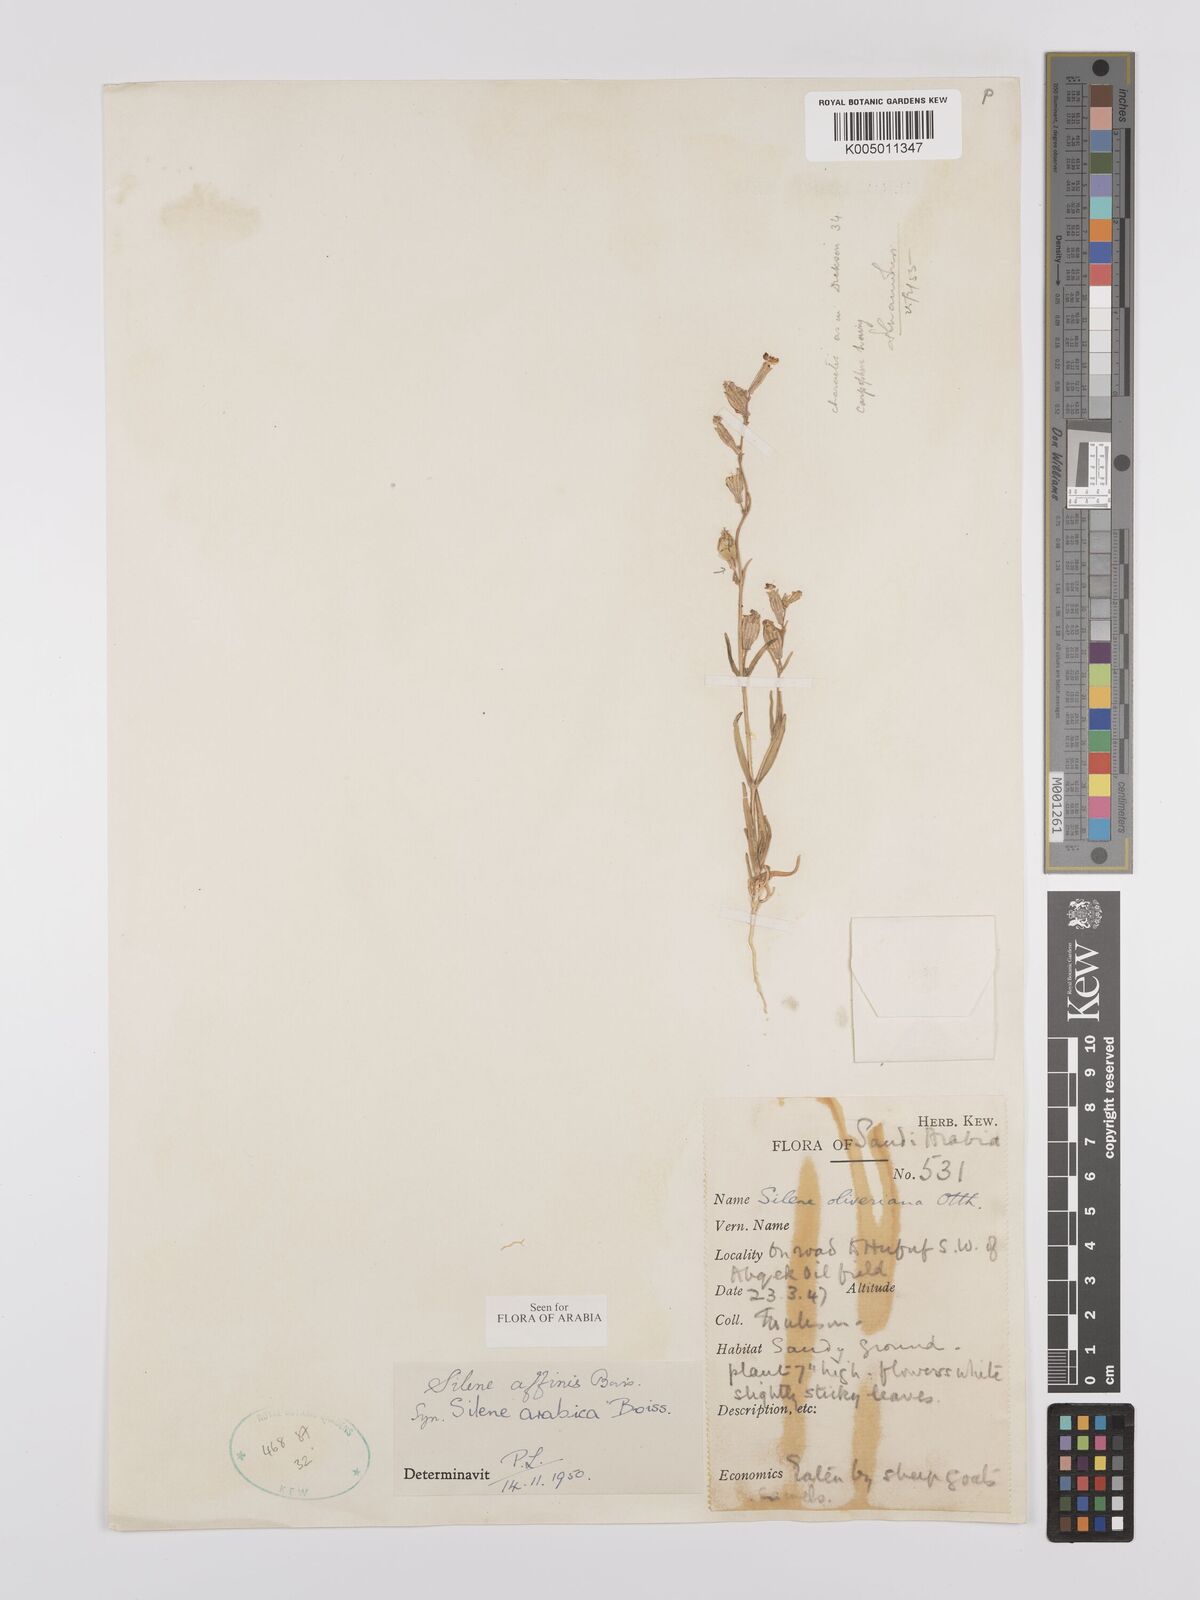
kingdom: Plantae
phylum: Tracheophyta
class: Magnoliopsida
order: Caryophyllales
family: Caryophyllaceae
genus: Silene
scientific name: Silene arabica
